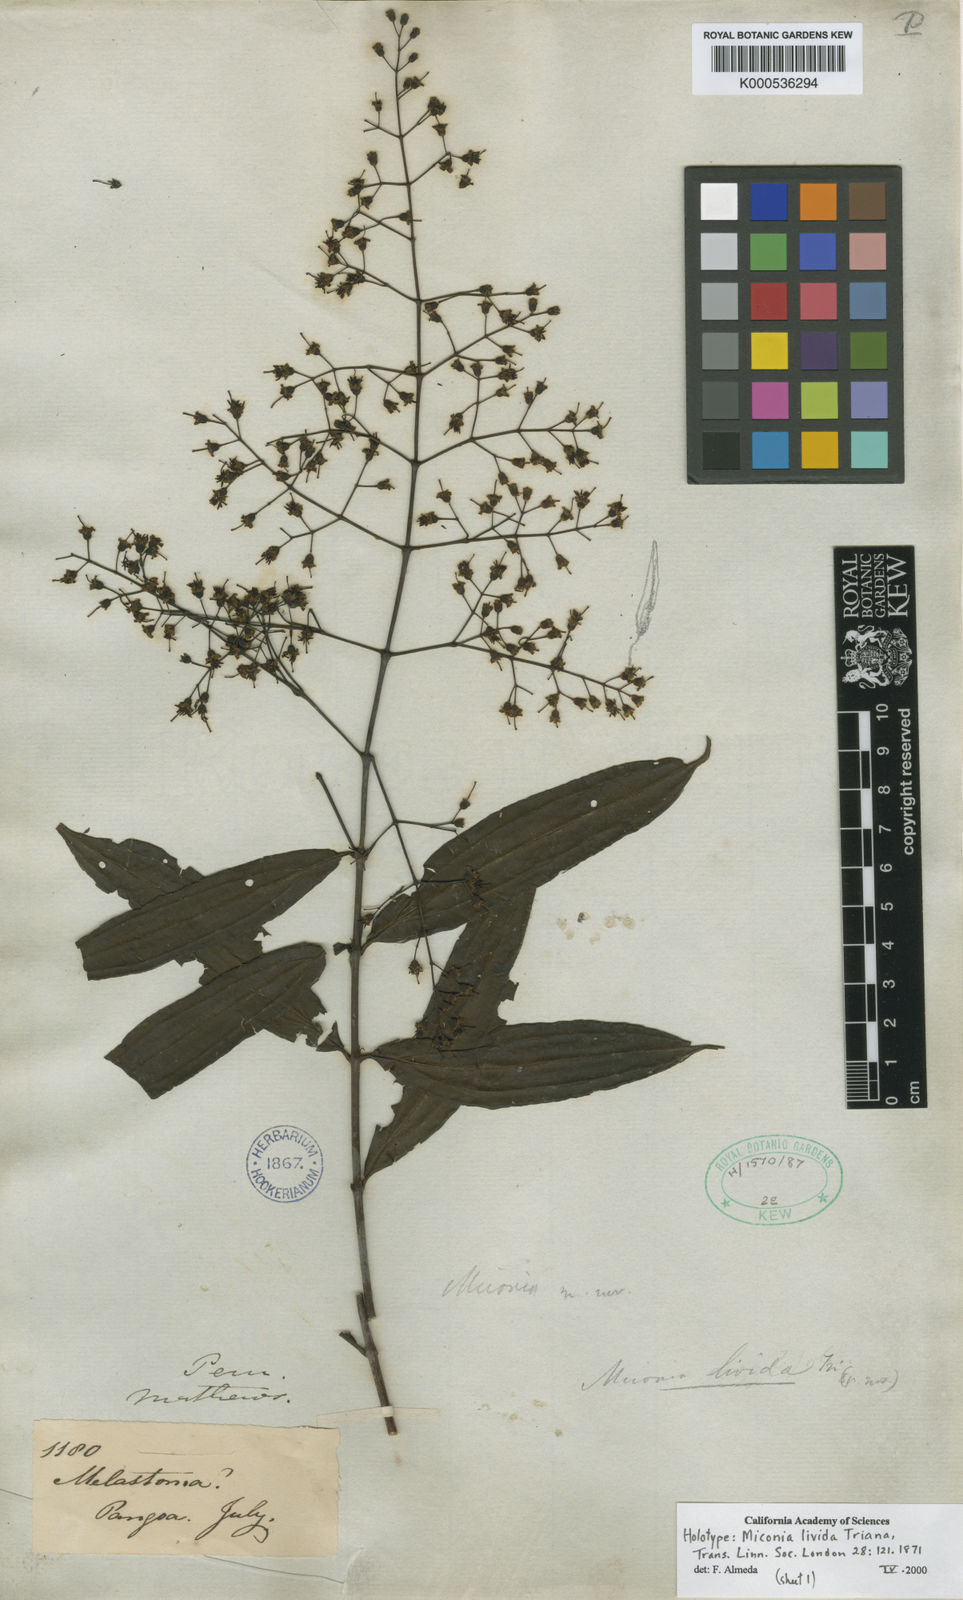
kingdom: Plantae
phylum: Tracheophyta
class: Magnoliopsida
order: Myrtales
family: Melastomataceae
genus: Miconia
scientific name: Miconia livida
